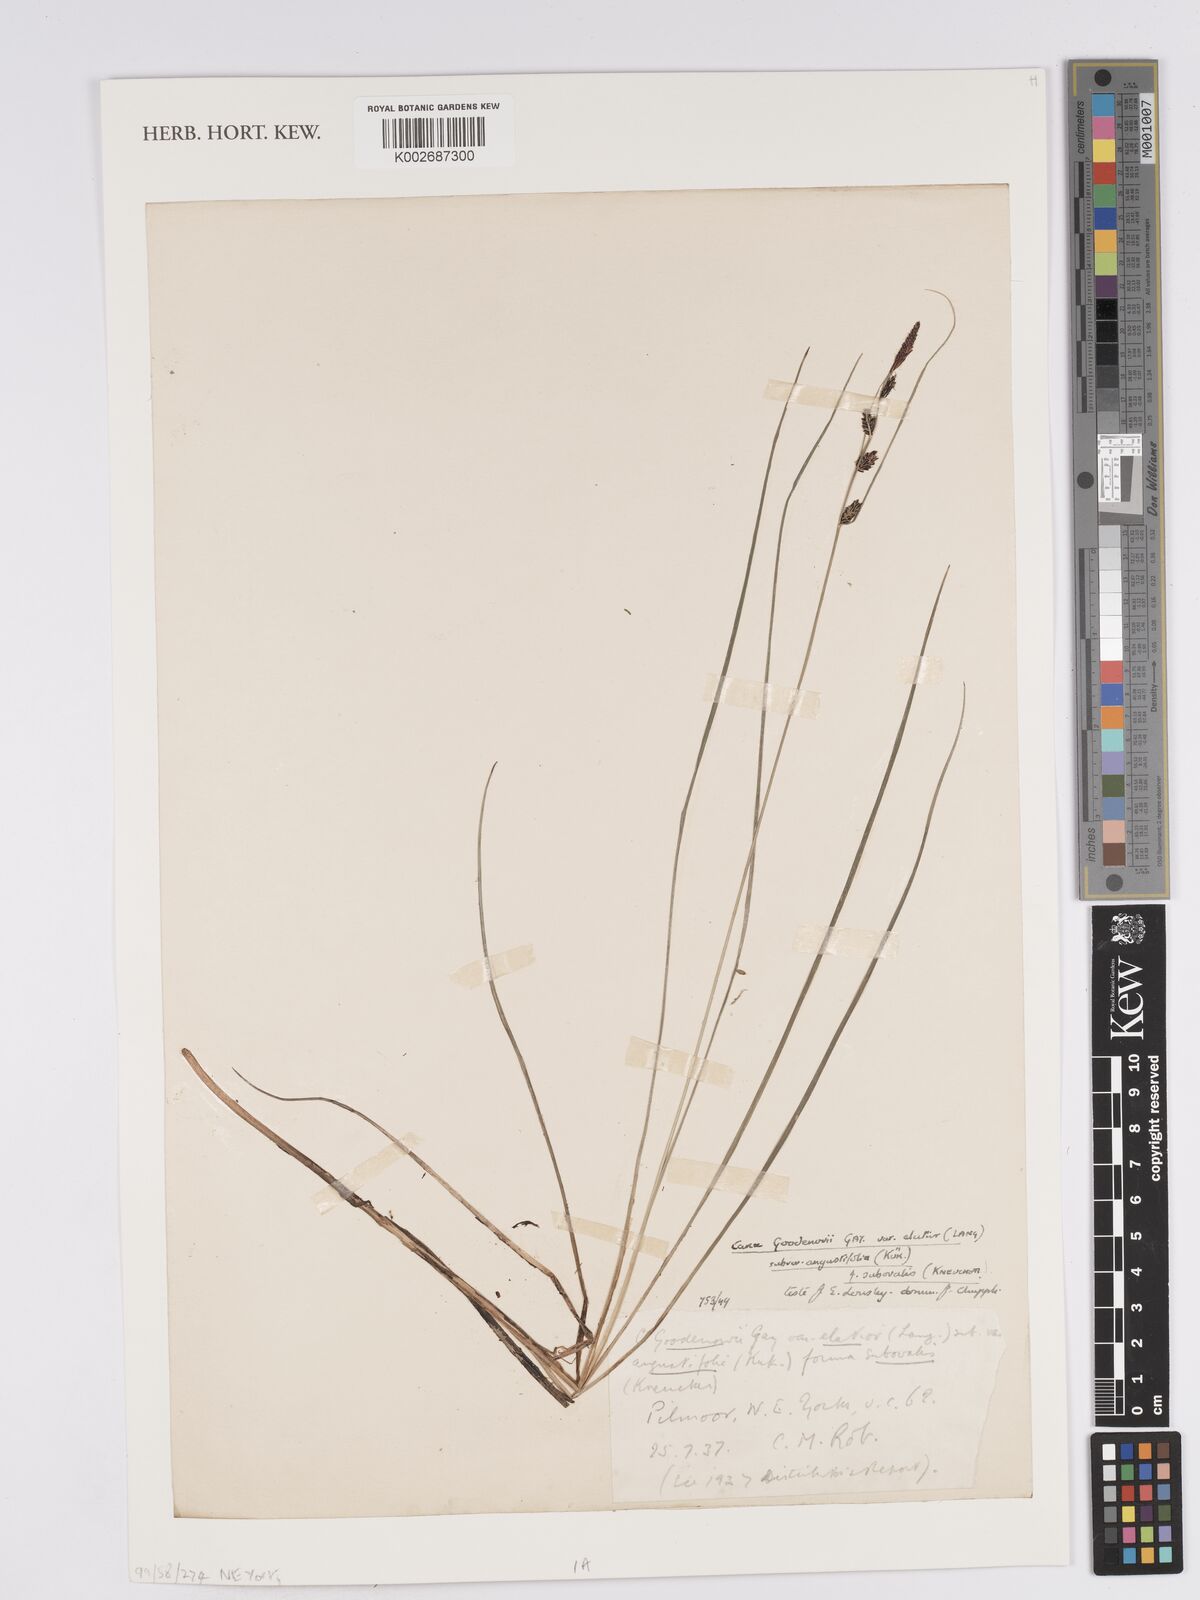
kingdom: Plantae
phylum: Tracheophyta
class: Liliopsida
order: Poales
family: Cyperaceae
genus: Carex
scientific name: Carex nigra
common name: Common sedge
